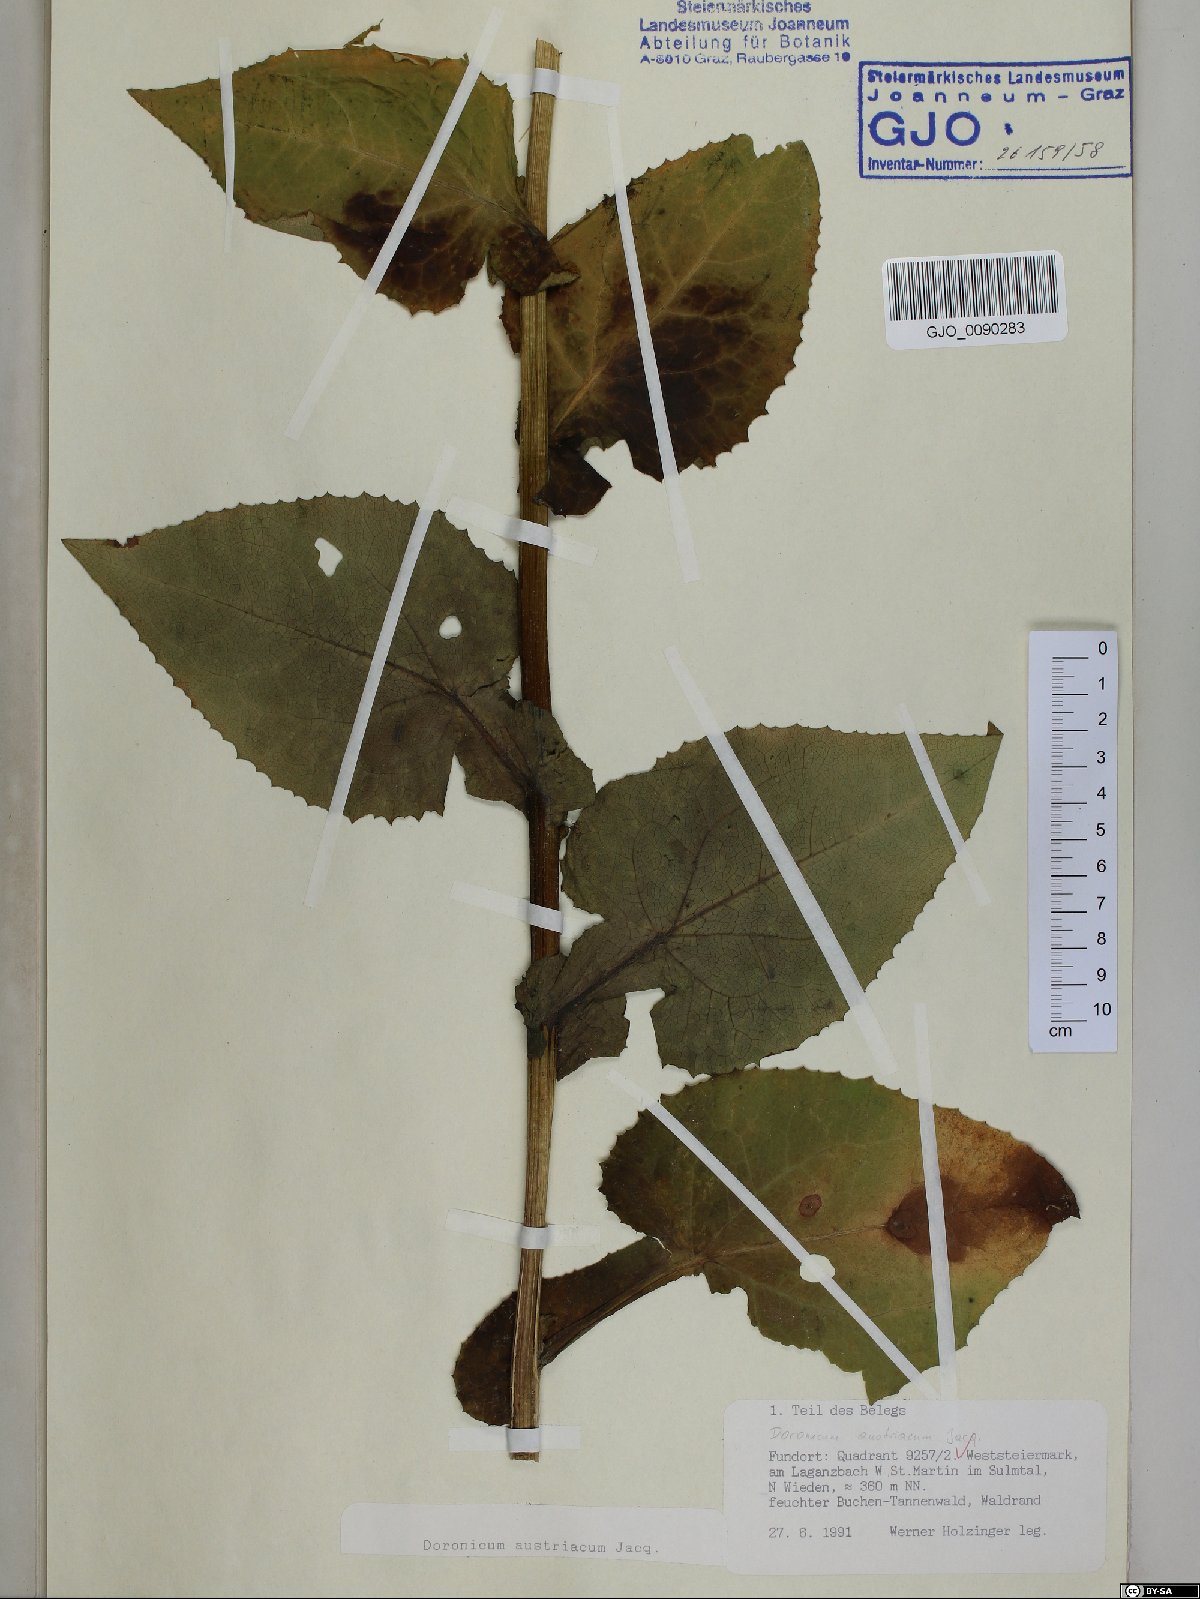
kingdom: Plantae
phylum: Tracheophyta
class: Magnoliopsida
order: Asterales
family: Asteraceae
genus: Doronicum
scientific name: Doronicum austriacum
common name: Austrian leopard's-bane
